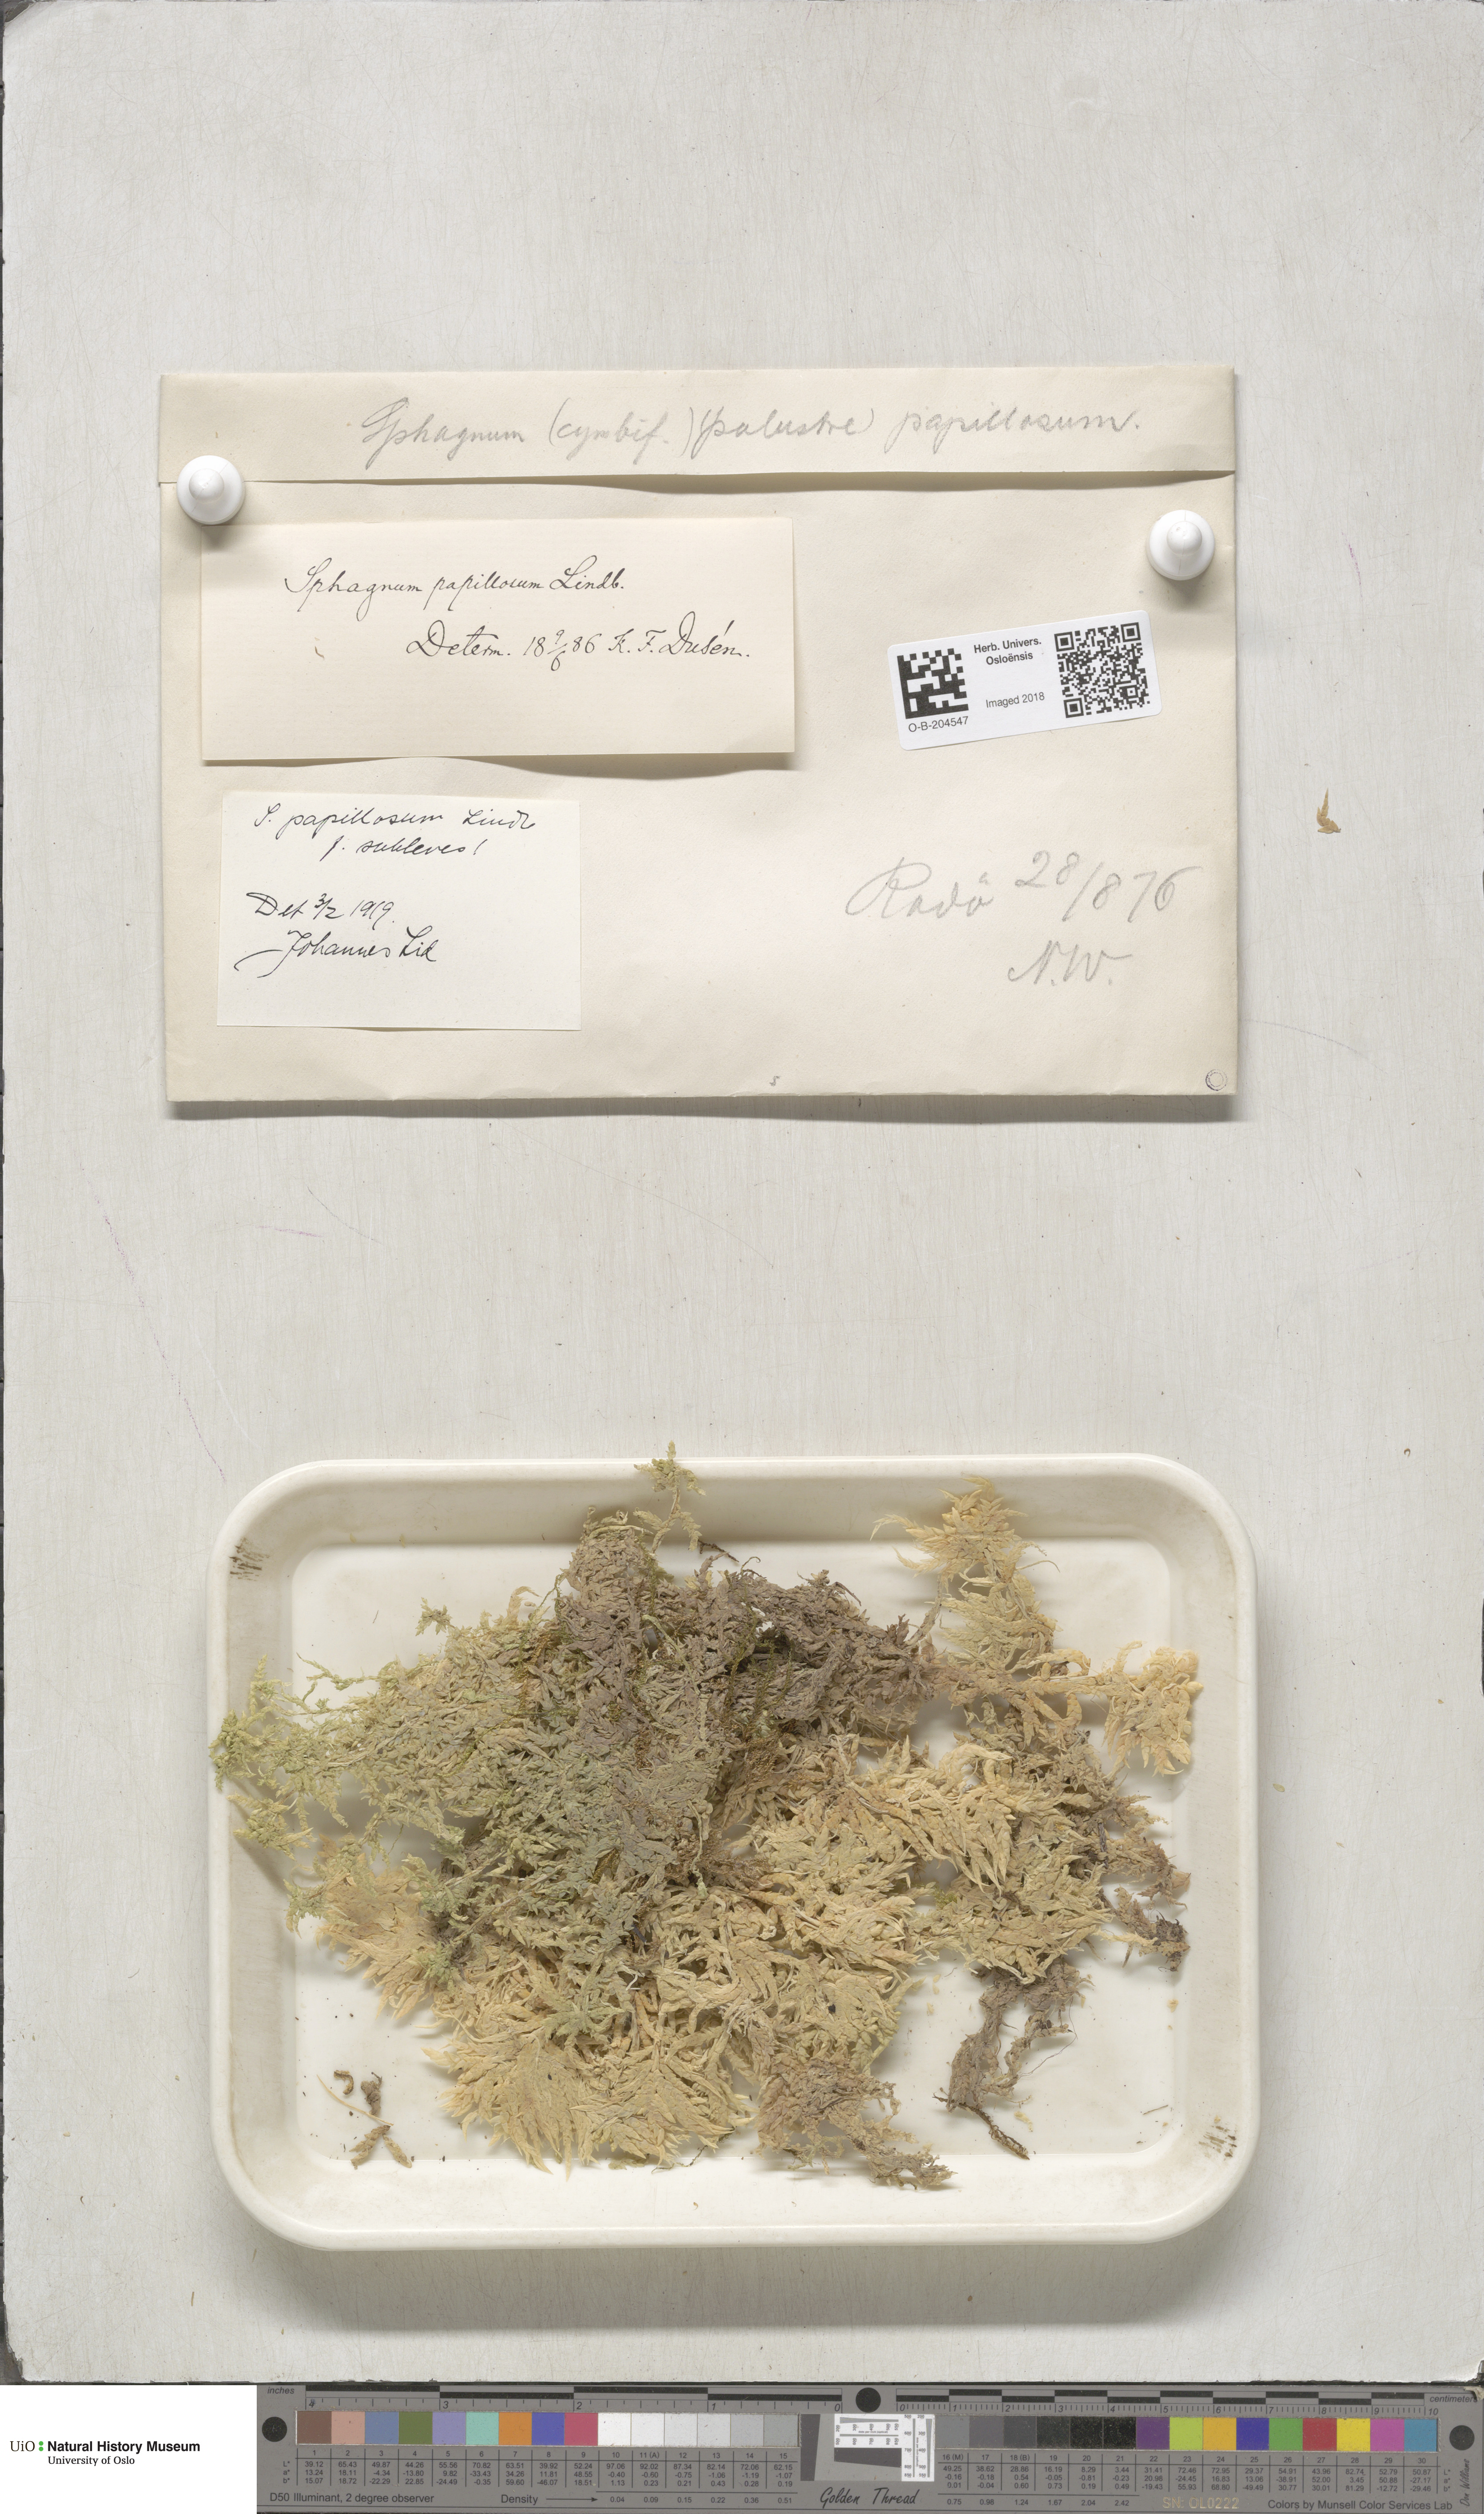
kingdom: Plantae
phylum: Bryophyta
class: Sphagnopsida
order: Sphagnales
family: Sphagnaceae
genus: Sphagnum
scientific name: Sphagnum papillosum
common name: Papillose peat moss
